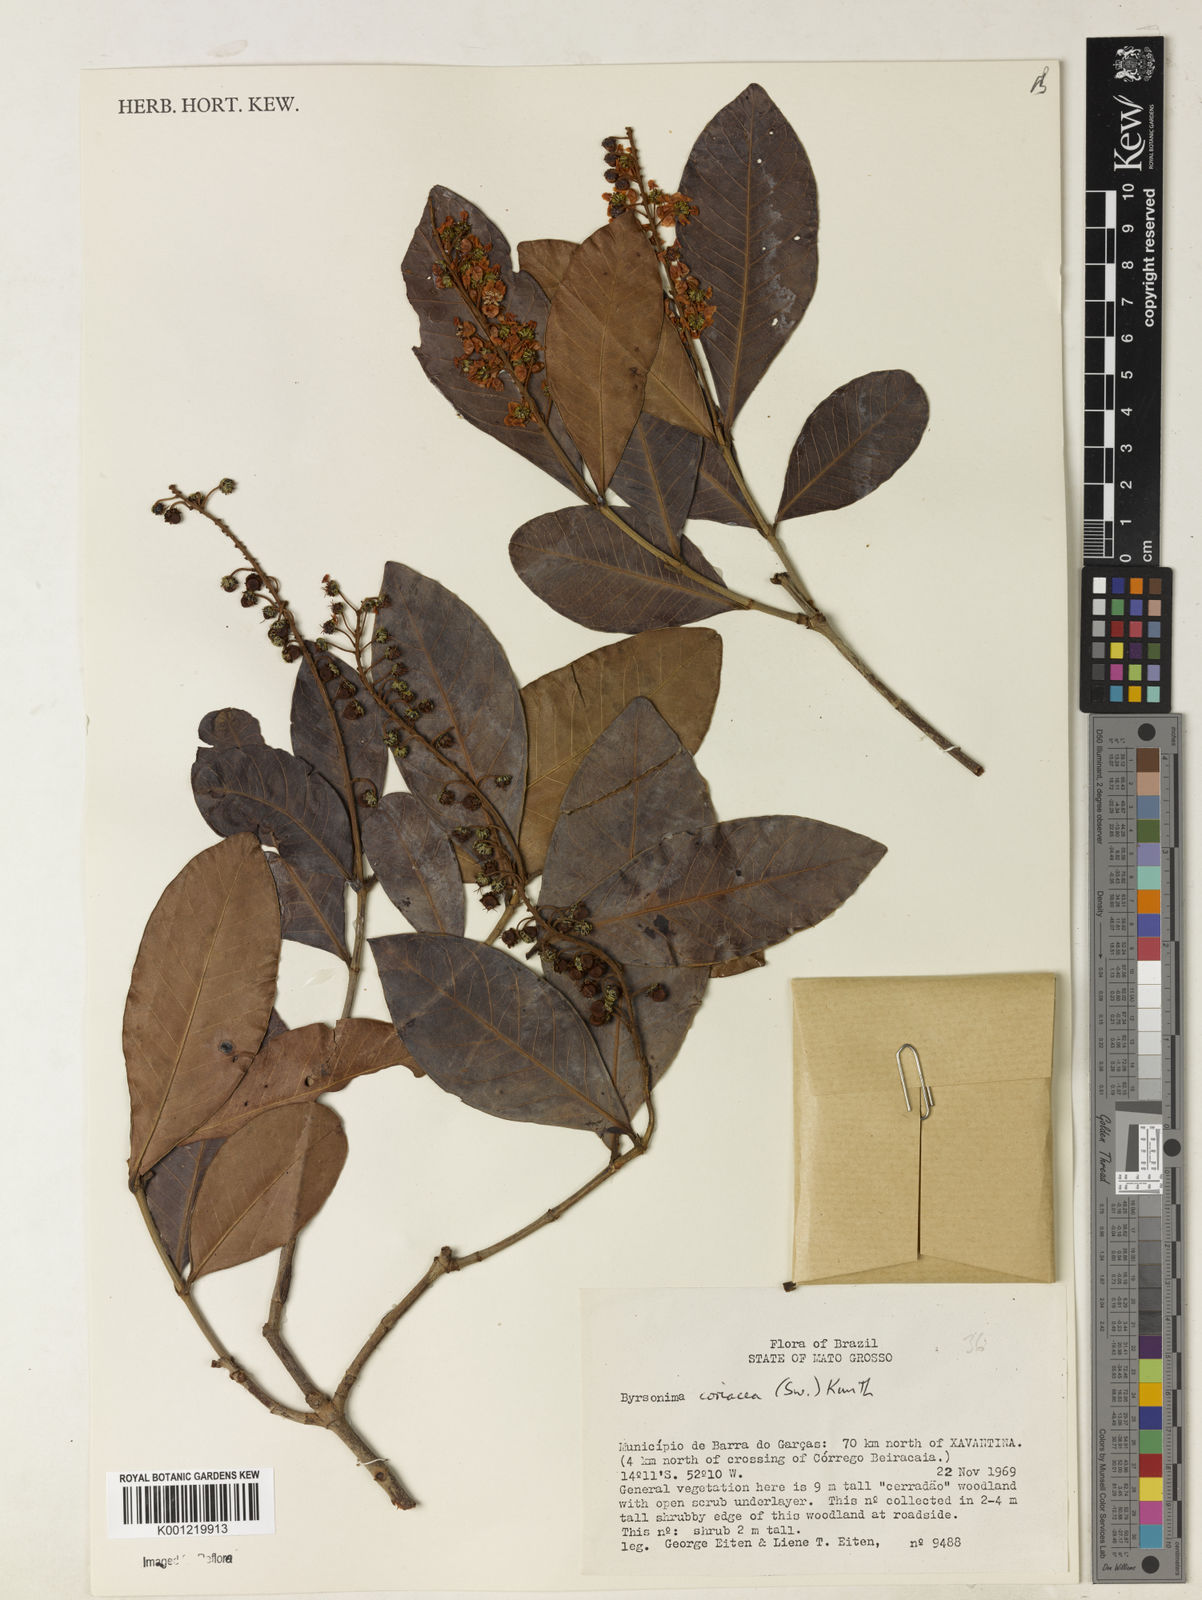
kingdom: Plantae
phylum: Tracheophyta
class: Magnoliopsida
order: Malpighiales
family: Malpighiaceae
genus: Byrsonima
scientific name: Byrsonima
